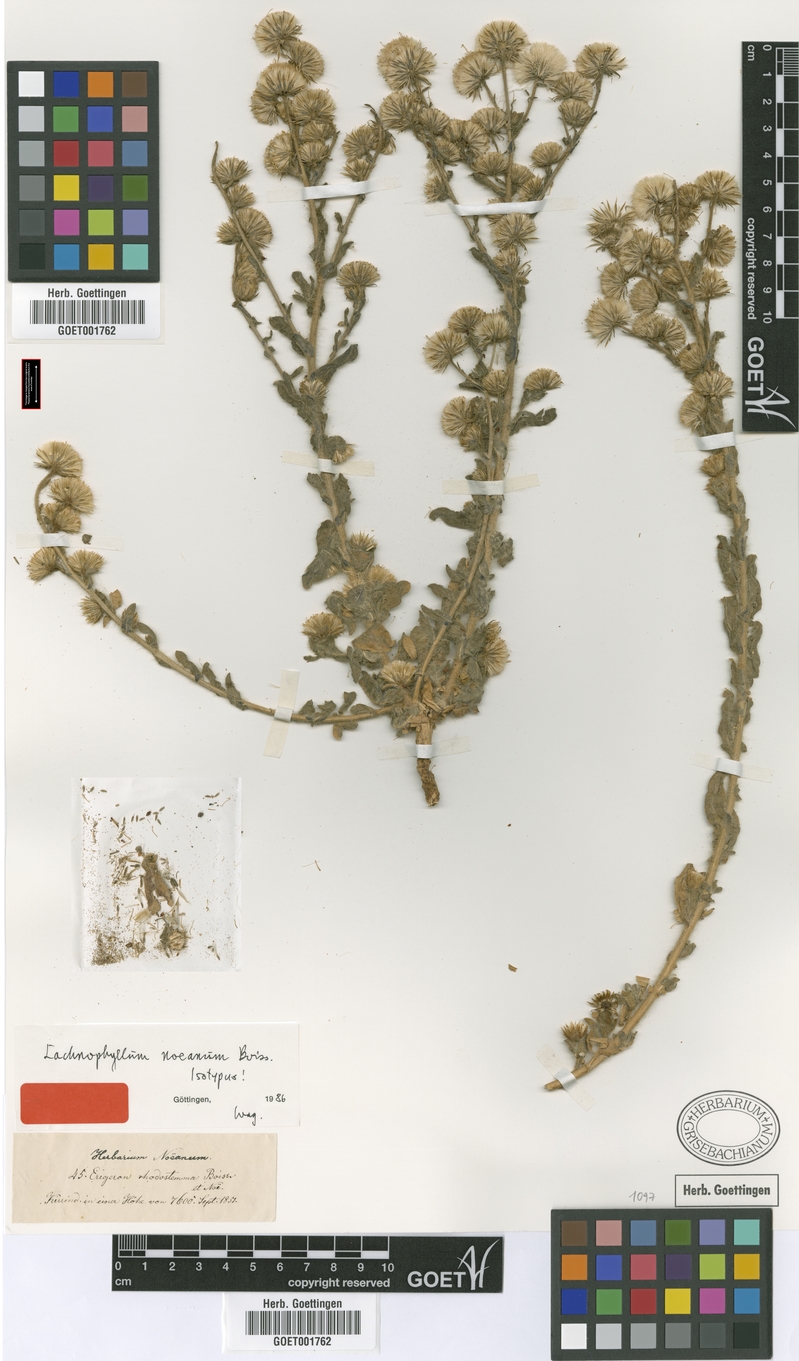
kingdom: Plantae
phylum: Tracheophyta
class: Magnoliopsida
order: Asterales
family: Asteraceae
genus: Lachnophyllum
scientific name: Lachnophyllum noeanum
